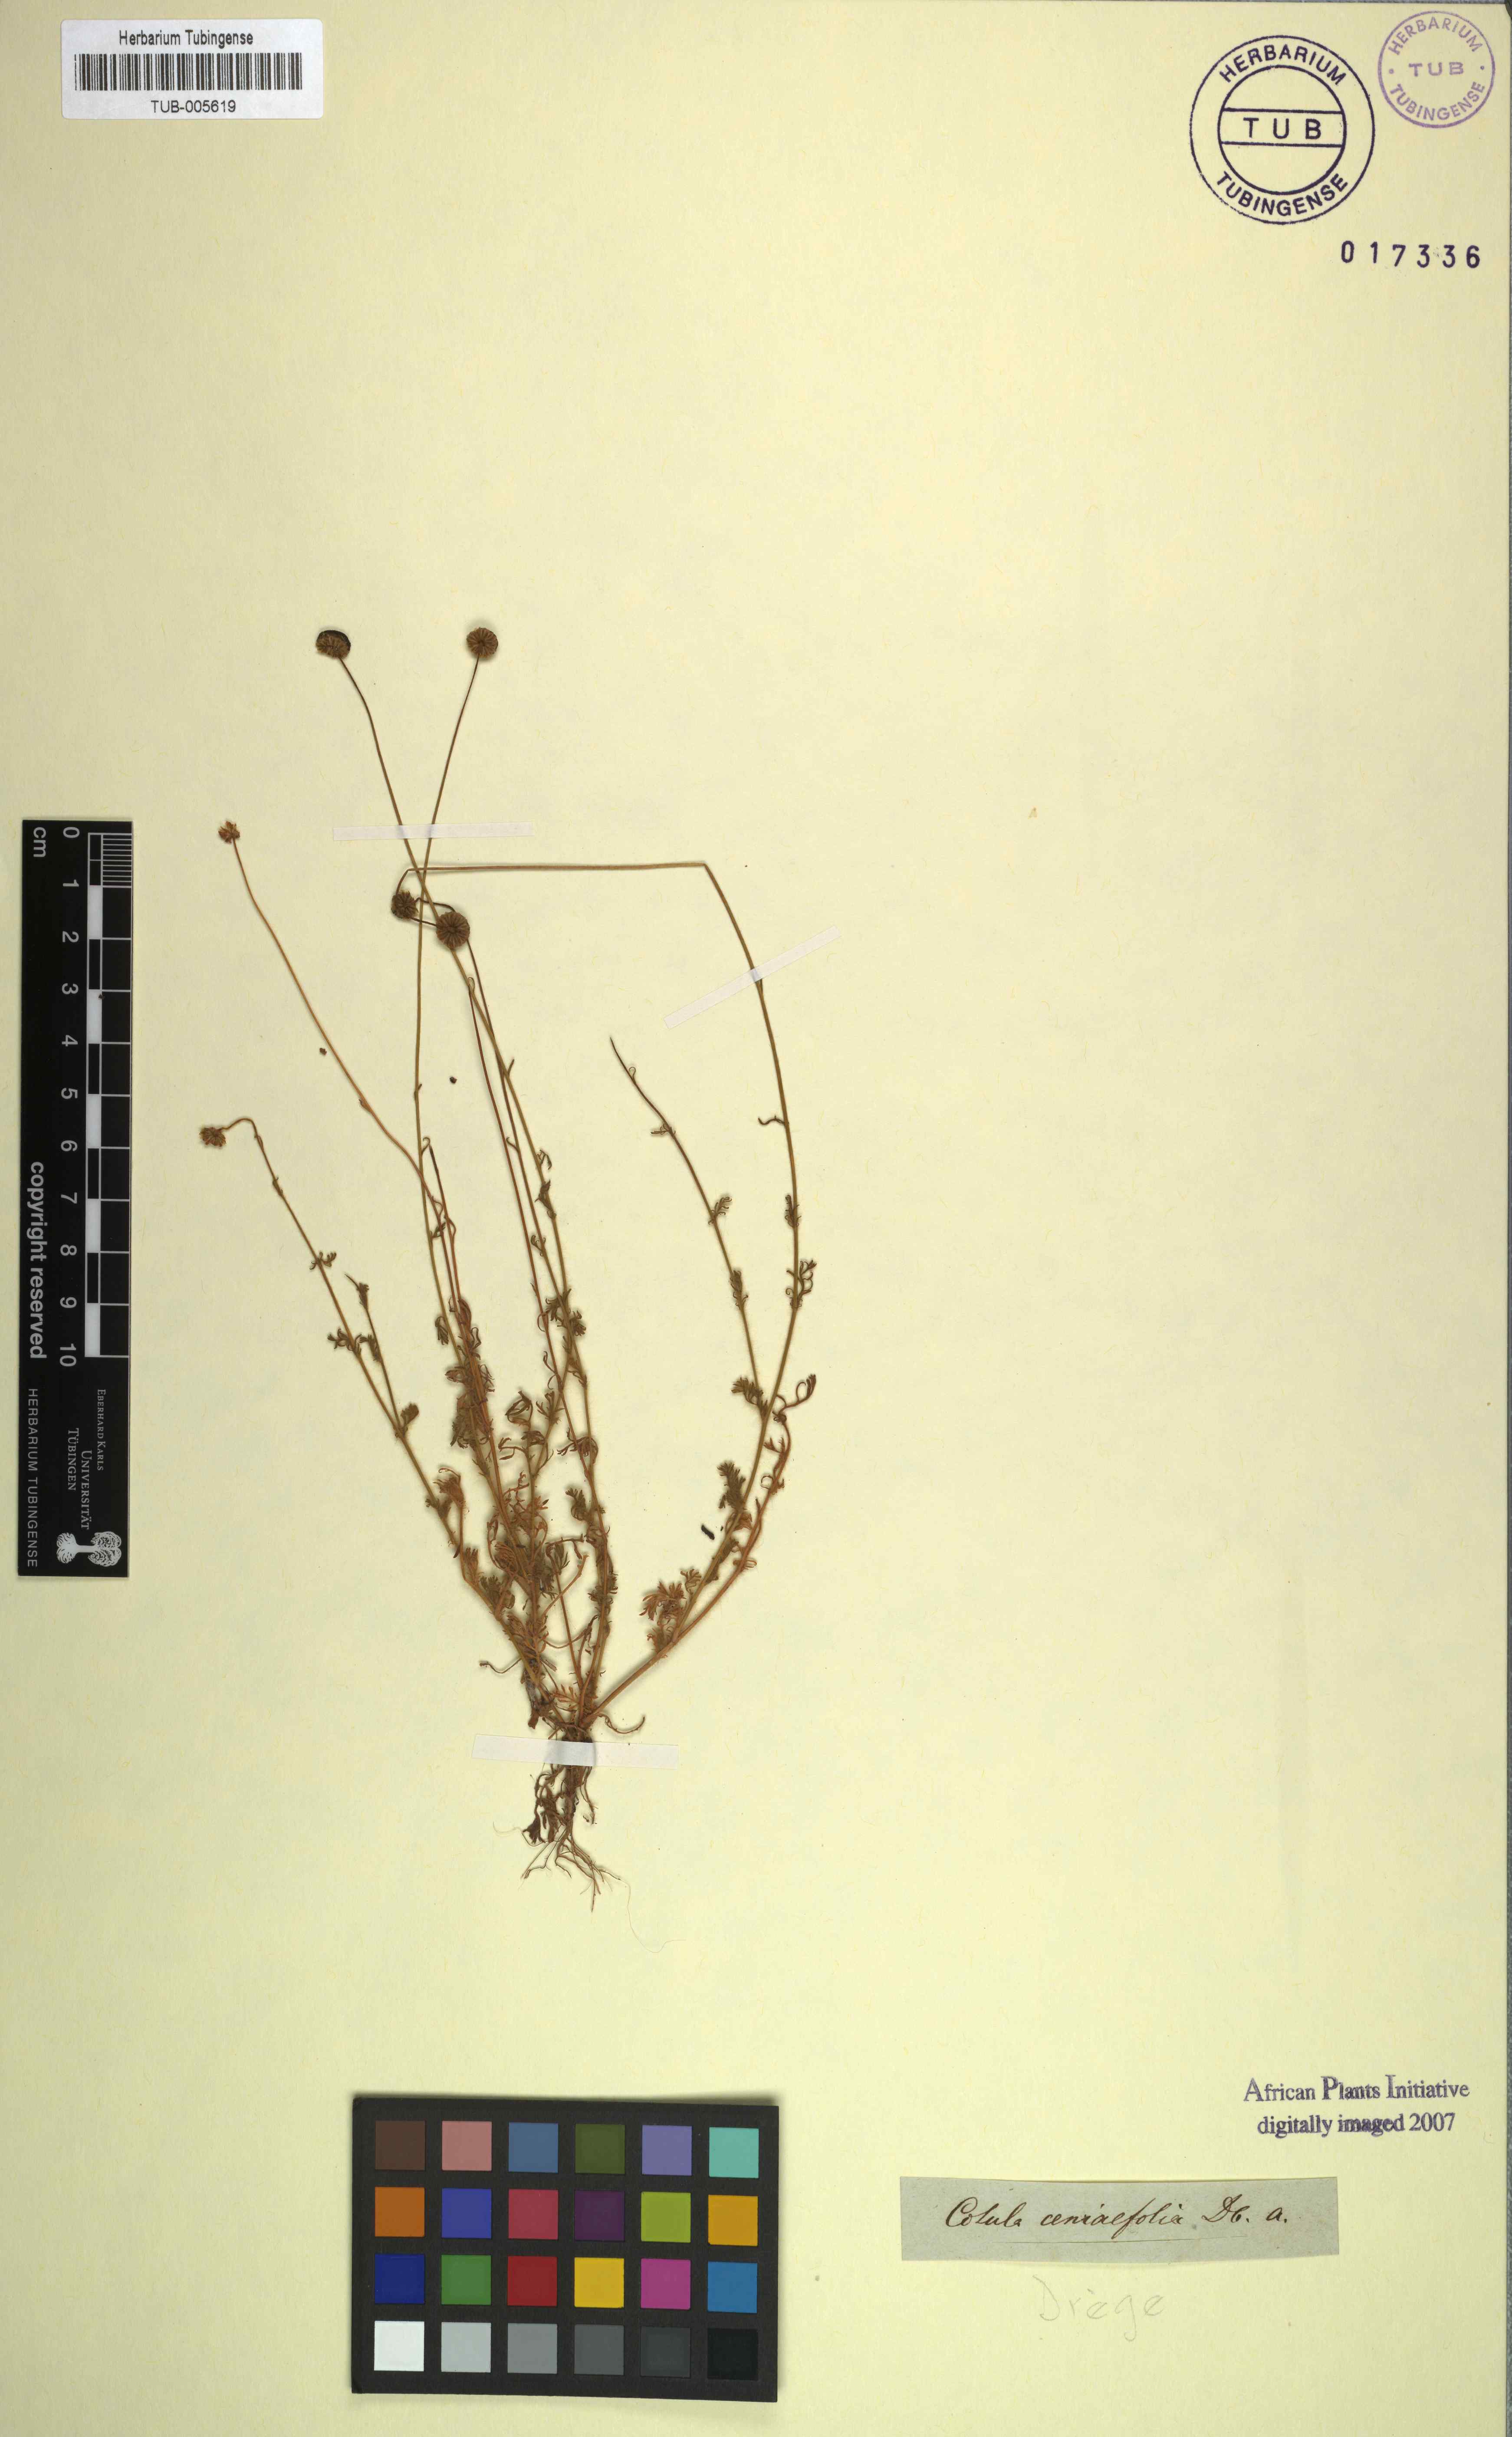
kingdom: Plantae
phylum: Tracheophyta
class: Magnoliopsida
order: Asterales
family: Asteraceae
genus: Cotula
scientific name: Cotula ceniifolia
